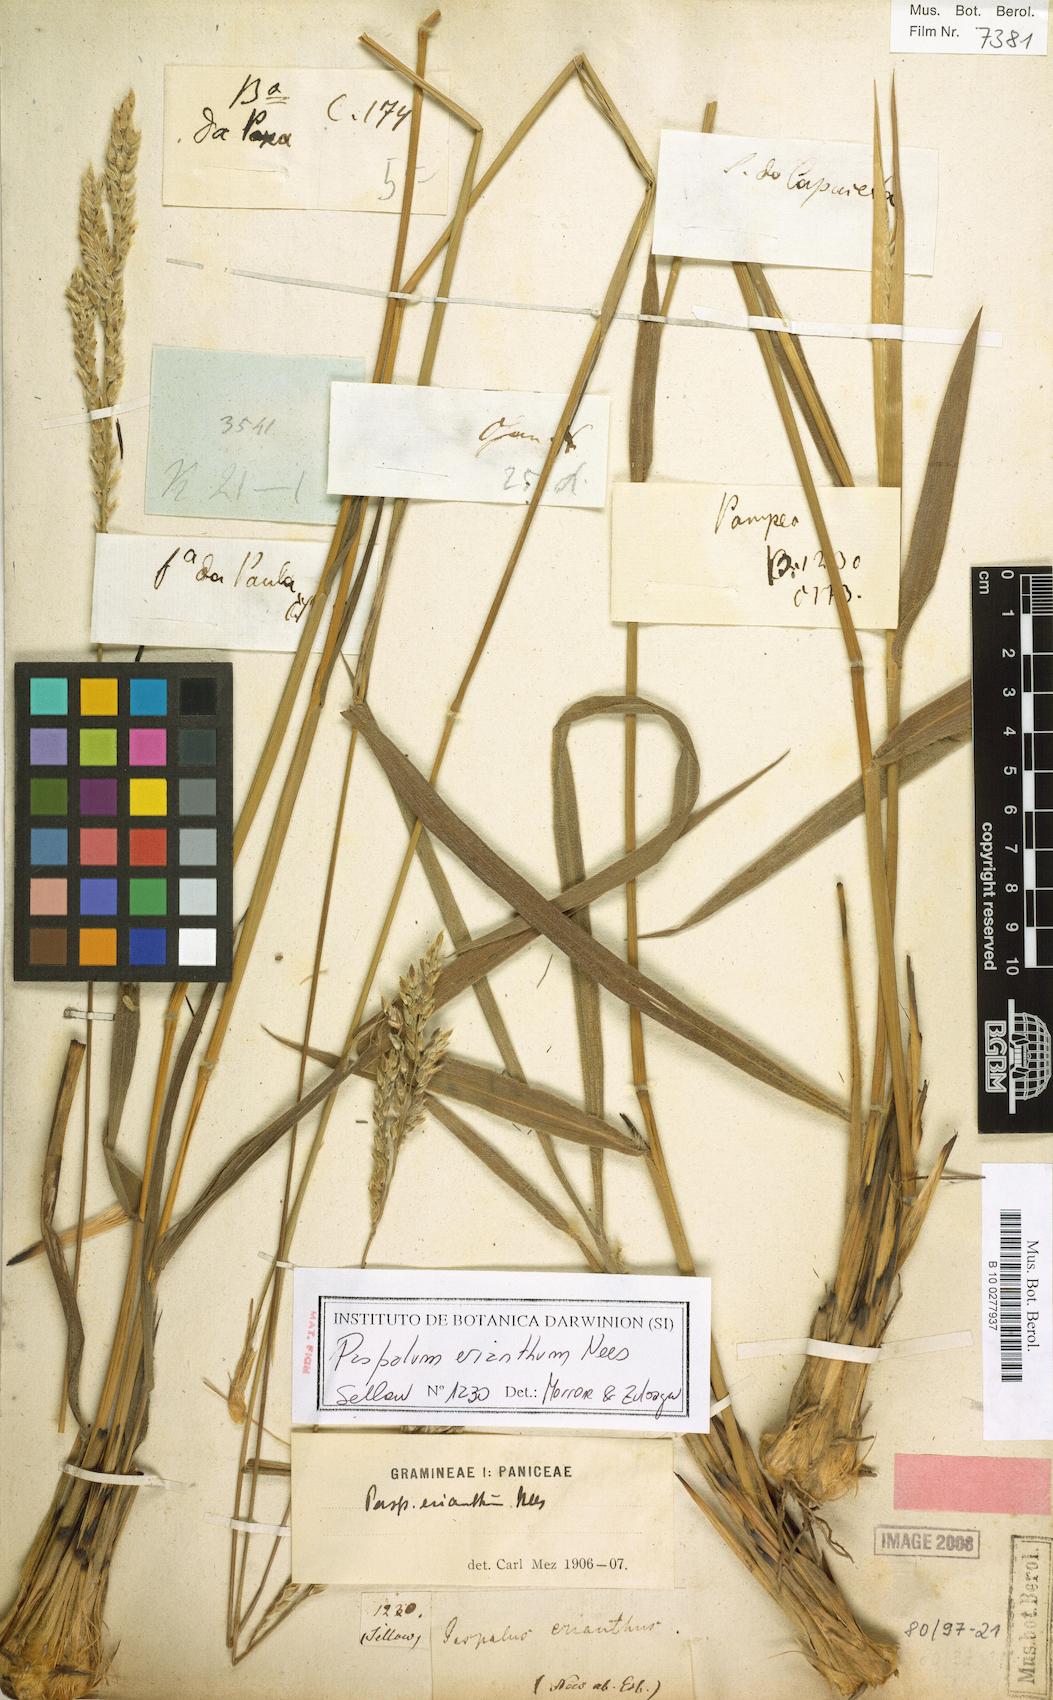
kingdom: Plantae
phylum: Tracheophyta
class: Liliopsida
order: Poales
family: Poaceae
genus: Paspalum
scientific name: Paspalum erianthum
